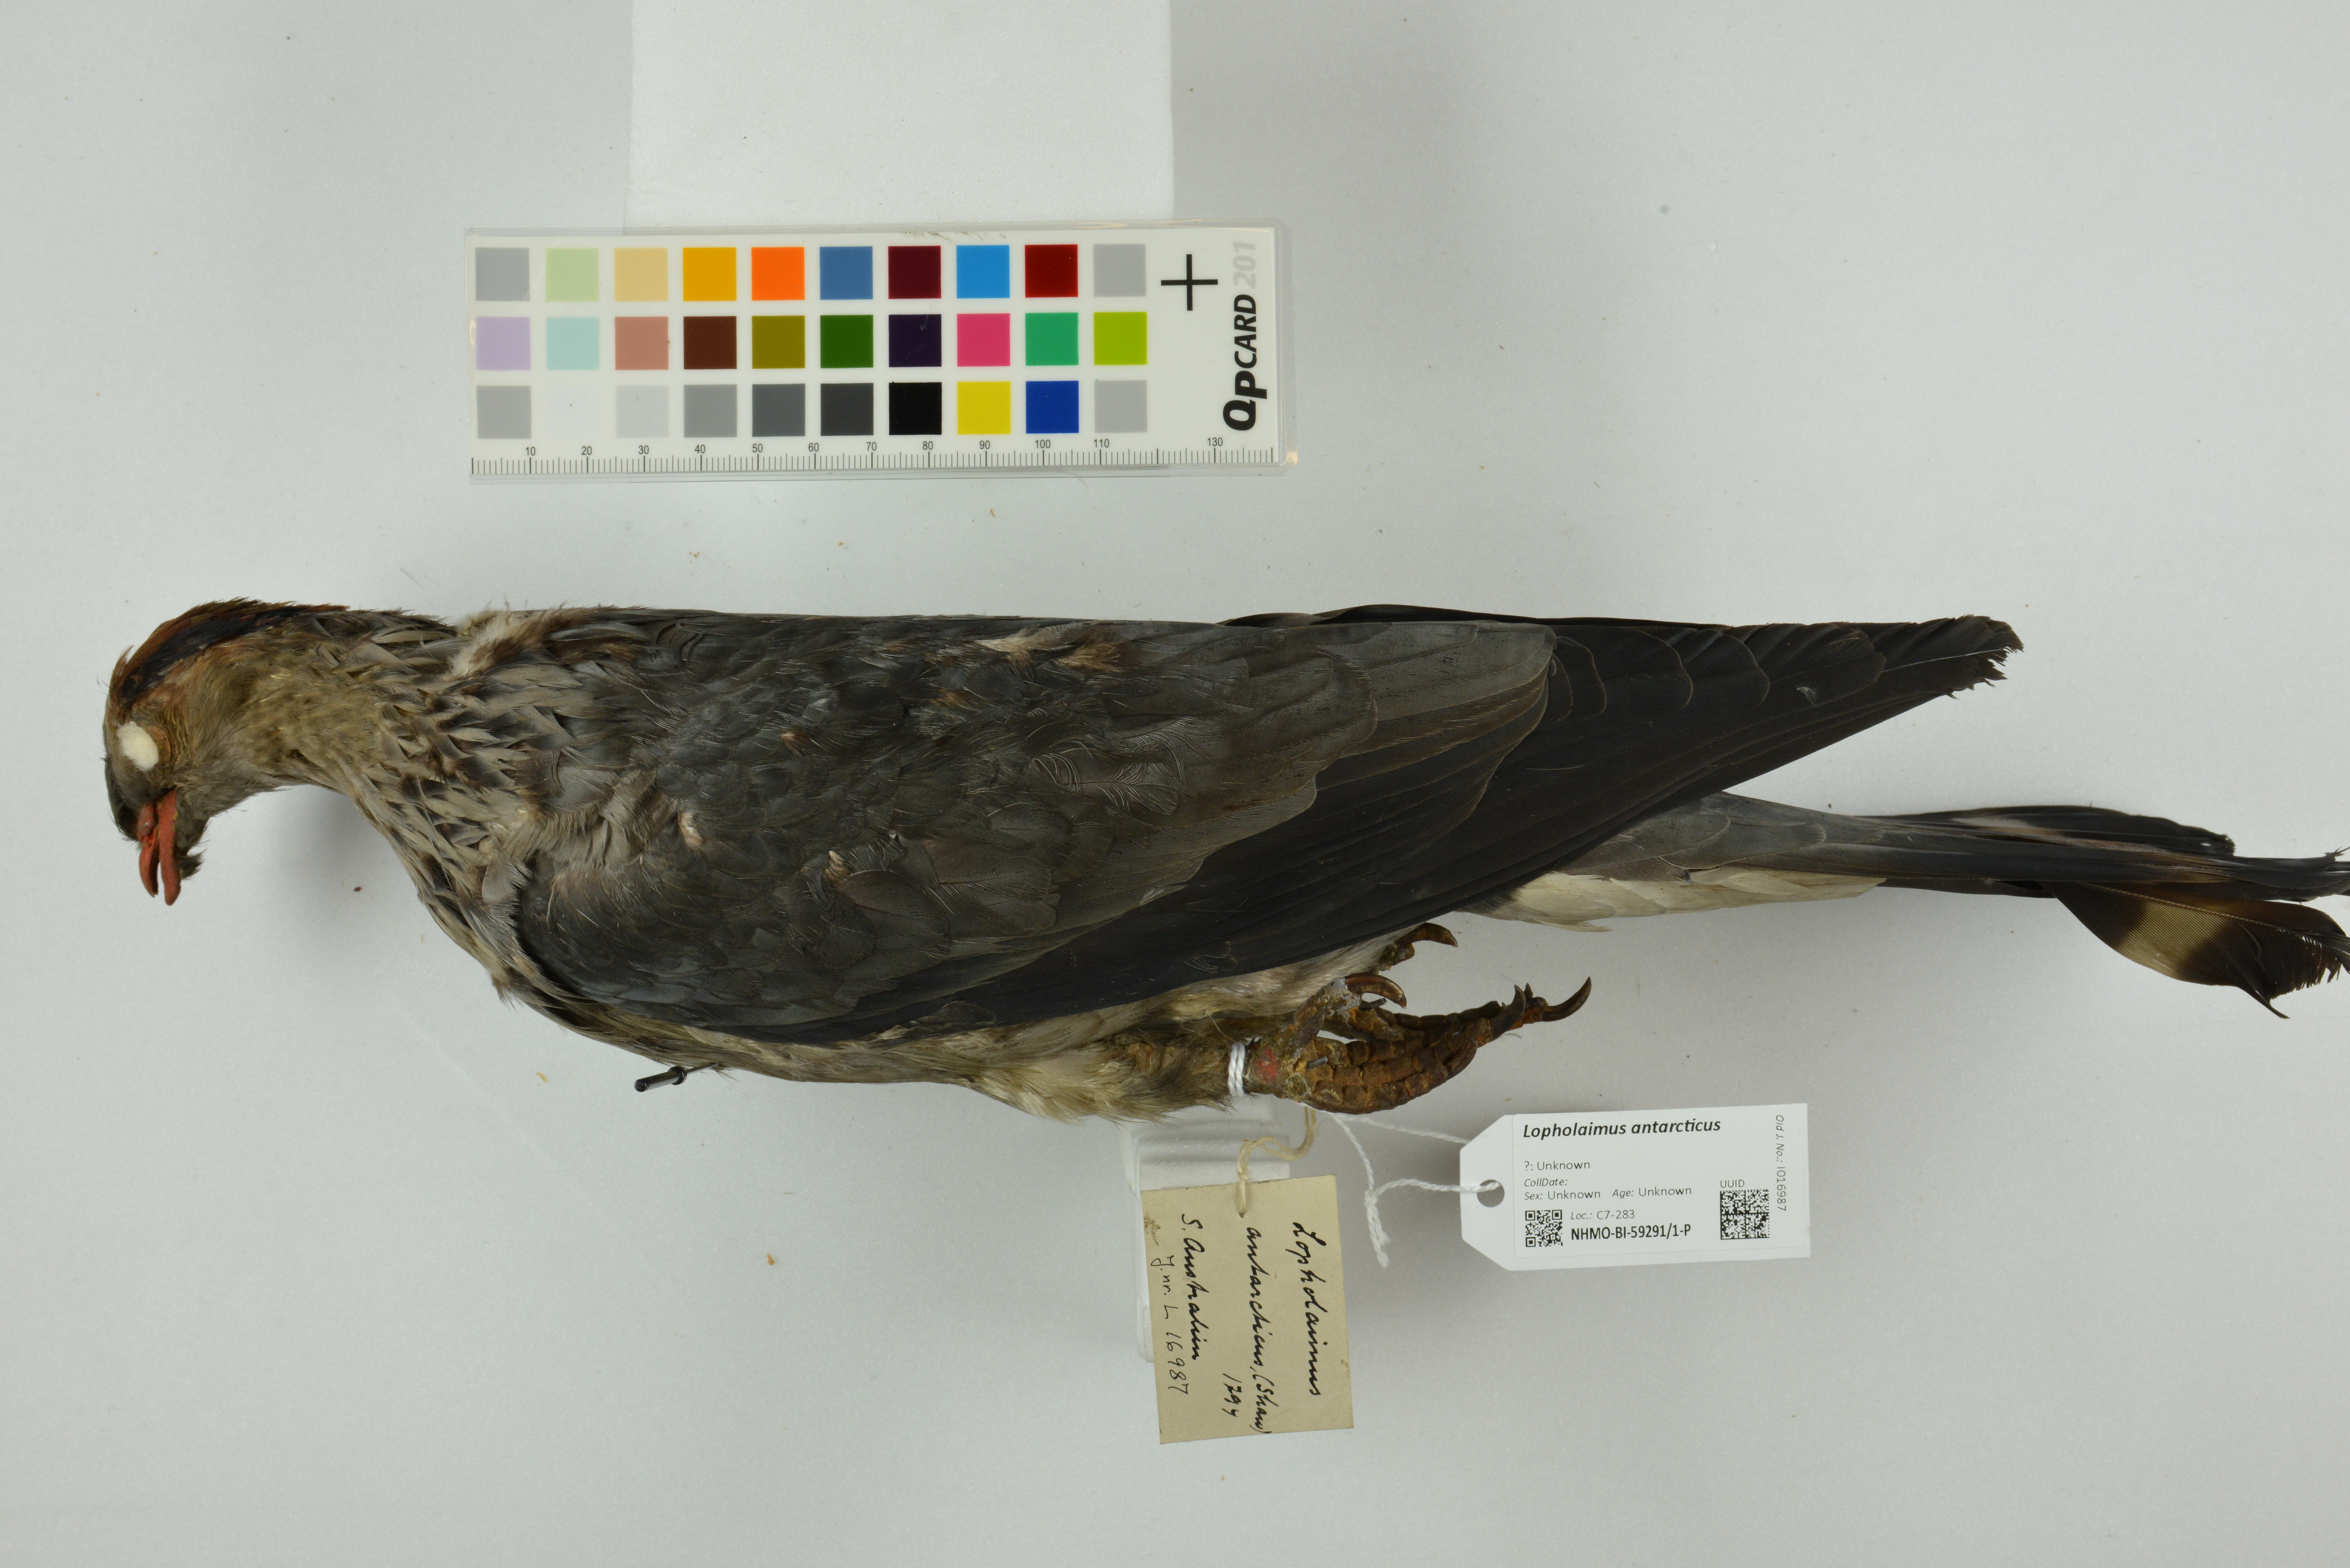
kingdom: Animalia
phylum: Chordata
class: Aves
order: Columbiformes
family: Columbidae
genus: Lopholaimus
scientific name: Lopholaimus antarcticus
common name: Topknot pigeon
